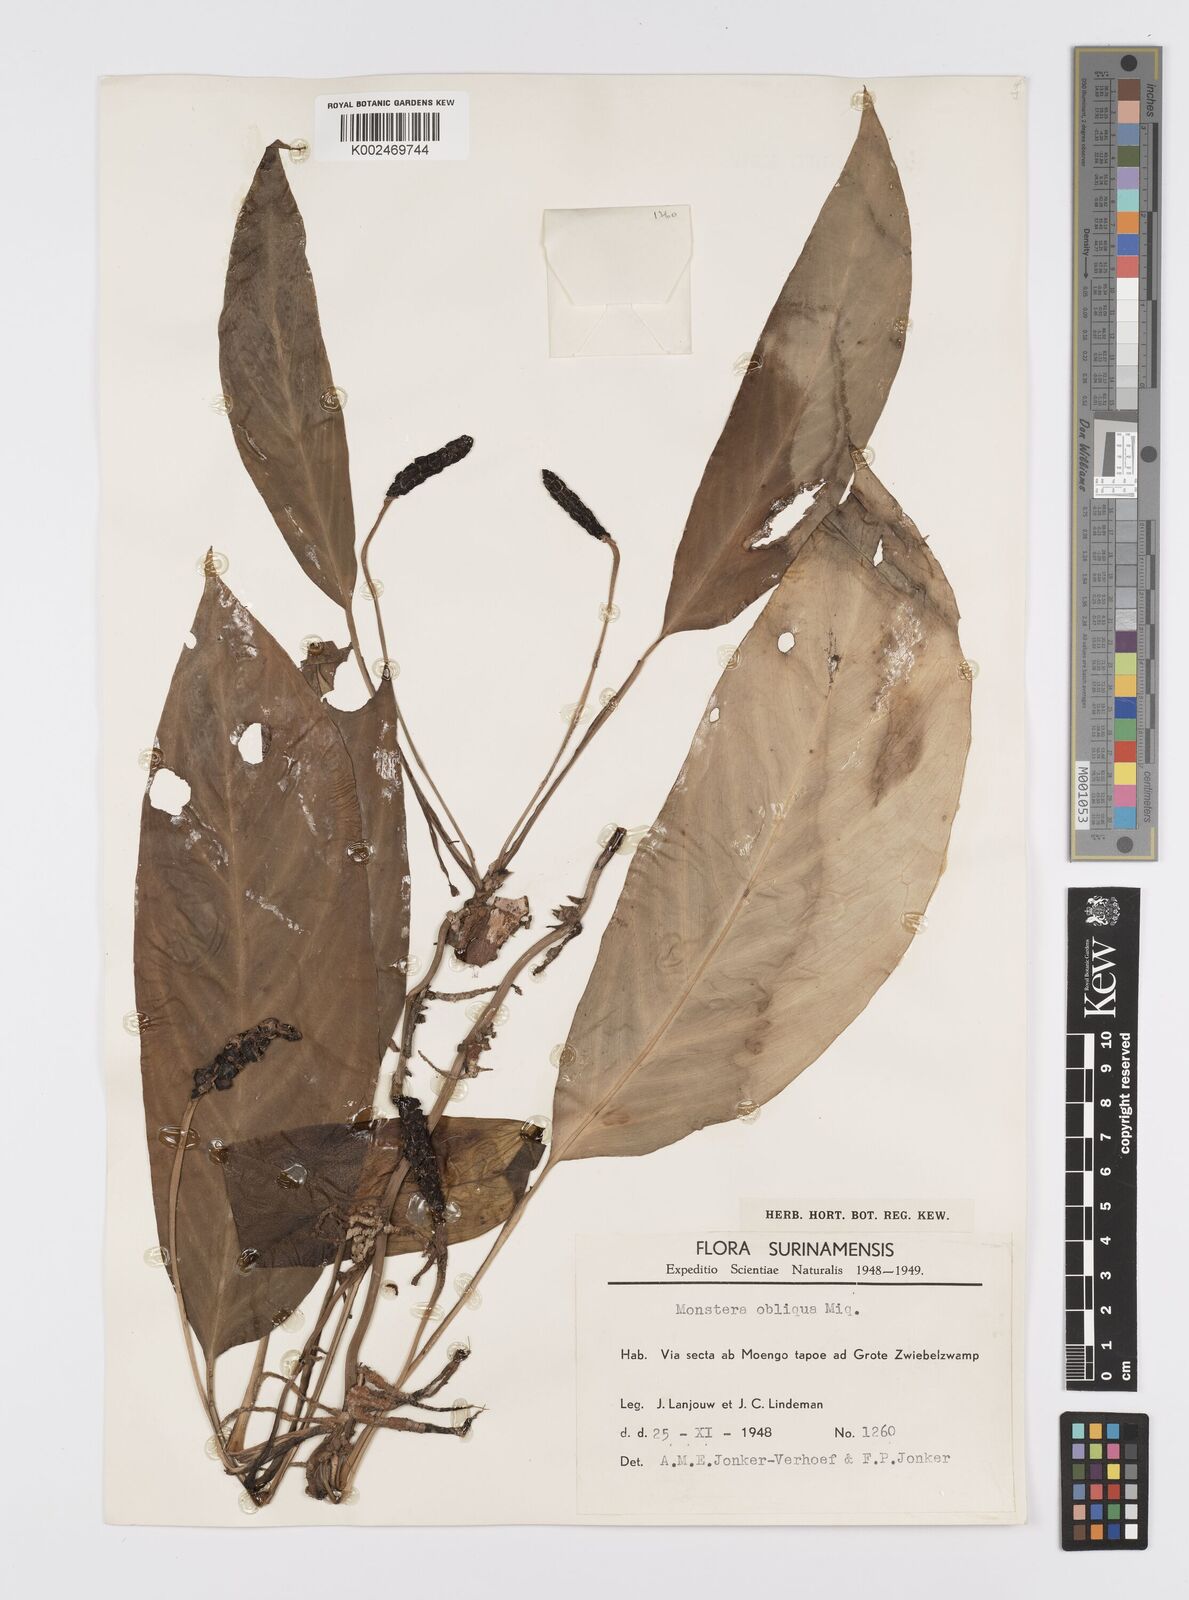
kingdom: Plantae
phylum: Tracheophyta
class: Liliopsida
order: Alismatales
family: Araceae
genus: Monstera
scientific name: Monstera obliqua
